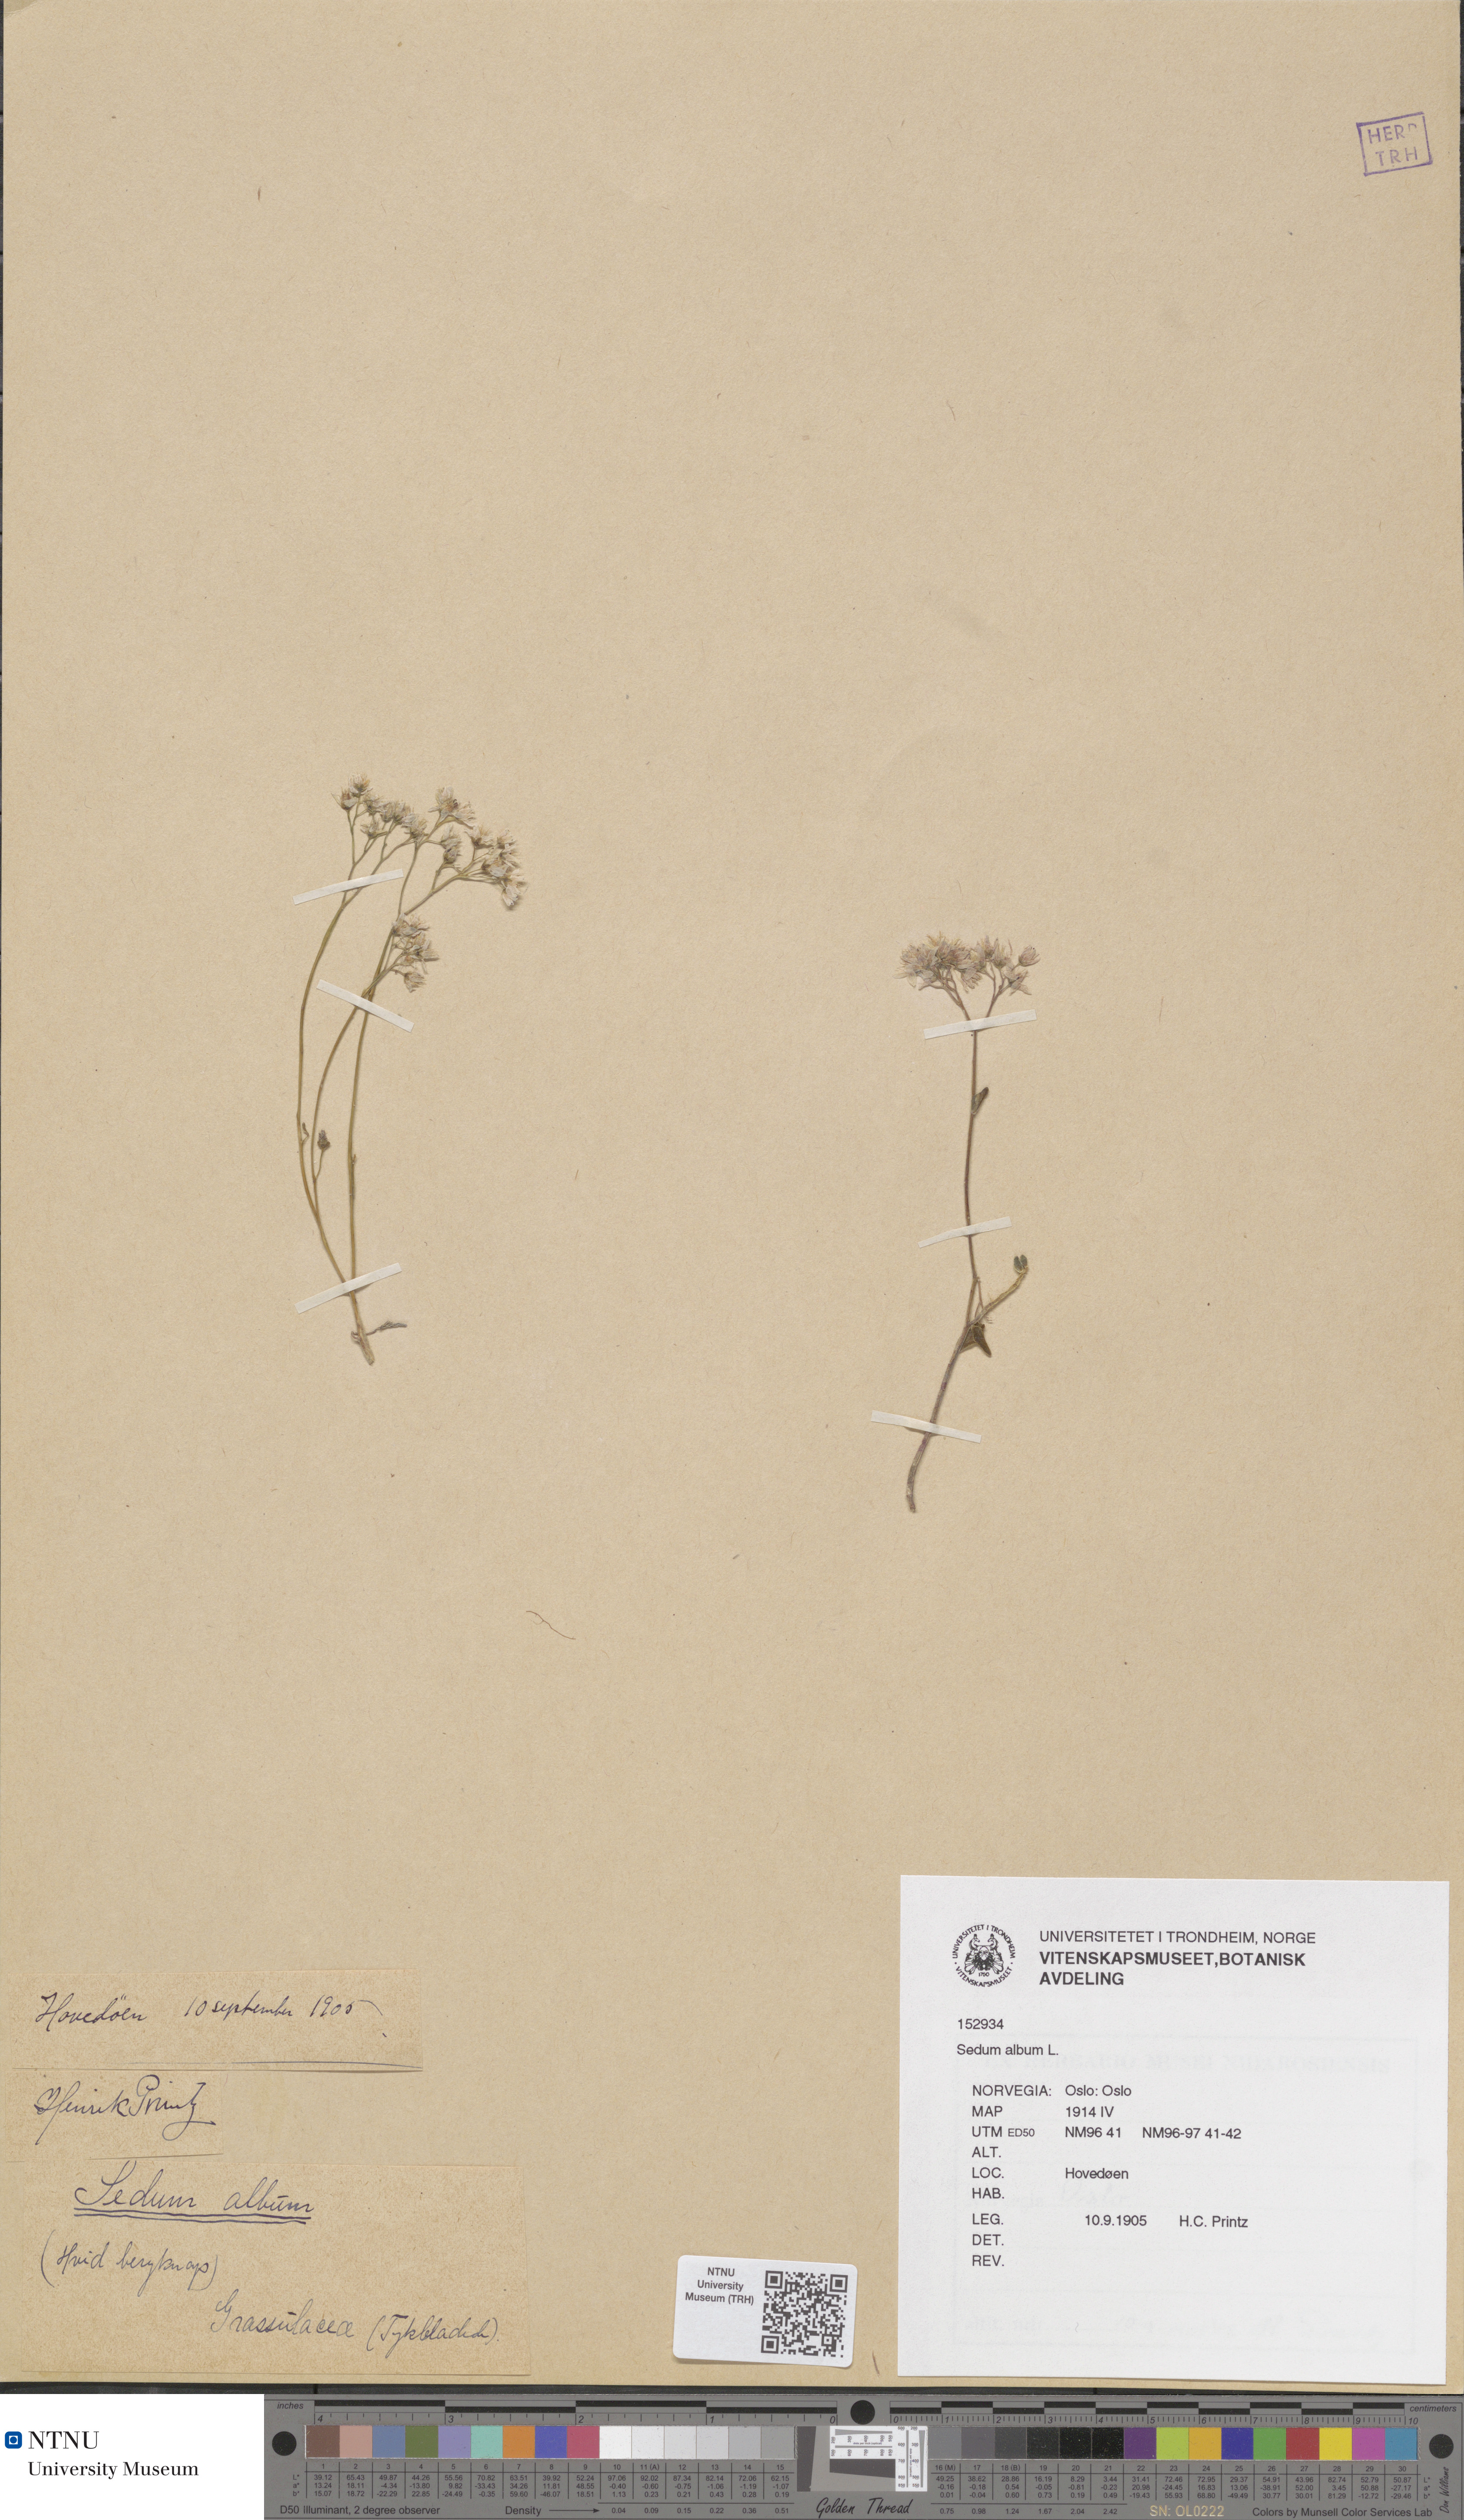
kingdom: Plantae
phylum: Tracheophyta
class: Magnoliopsida
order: Saxifragales
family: Crassulaceae
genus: Sedum
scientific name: Sedum album
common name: White stonecrop
